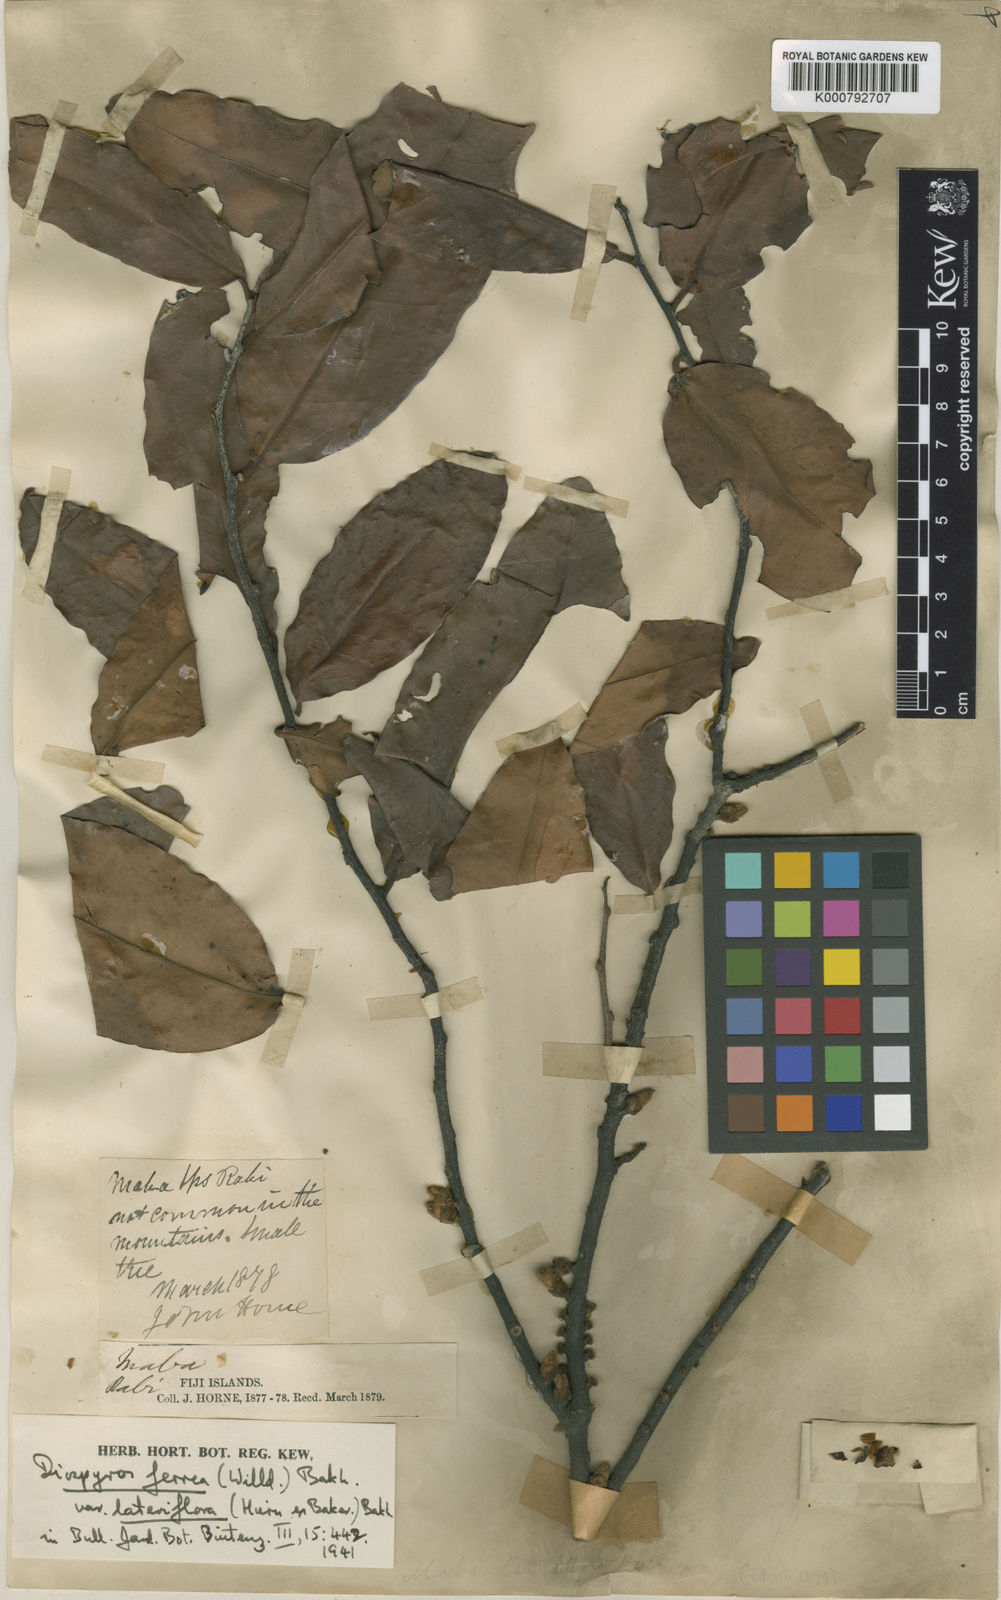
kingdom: Plantae
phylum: Tracheophyta
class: Magnoliopsida
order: Ericales
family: Ebenaceae
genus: Diospyros
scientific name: Diospyros ferrea
